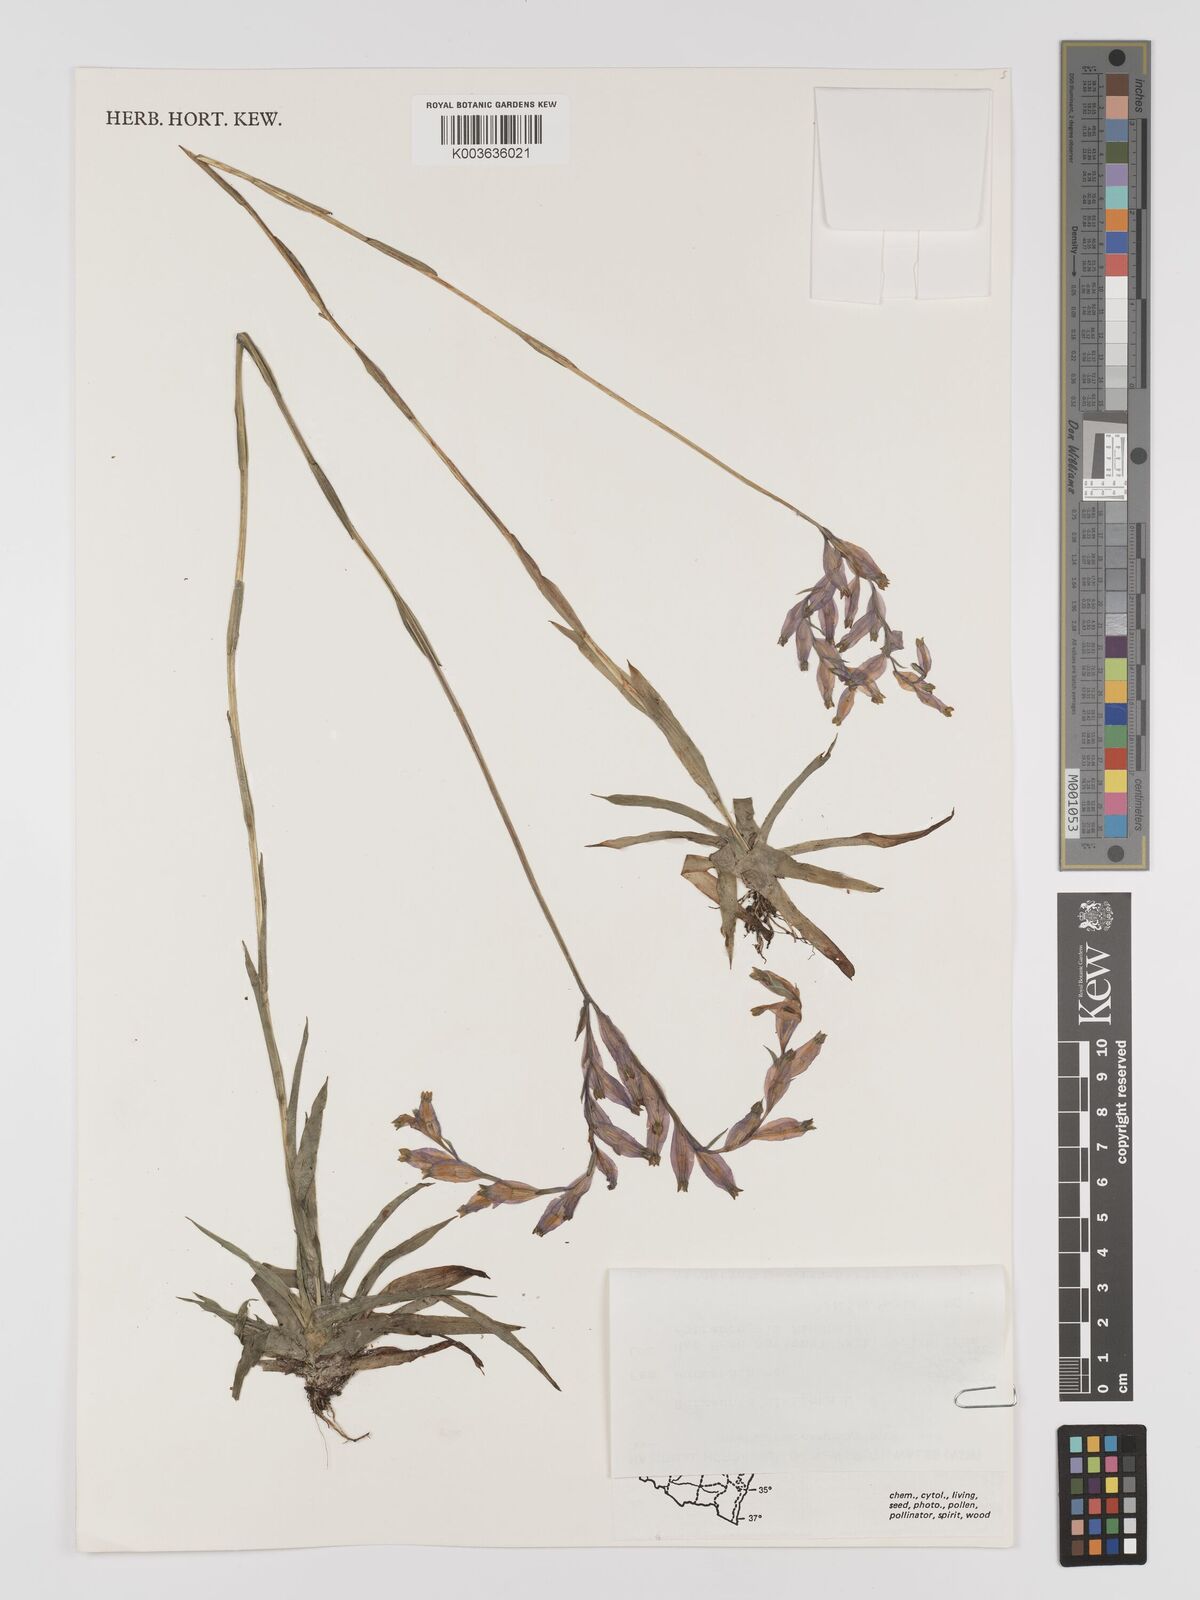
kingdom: Plantae
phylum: Tracheophyta
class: Liliopsida
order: Dioscoreales
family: Burmanniaceae
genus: Burmannia
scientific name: Burmannia disticha
